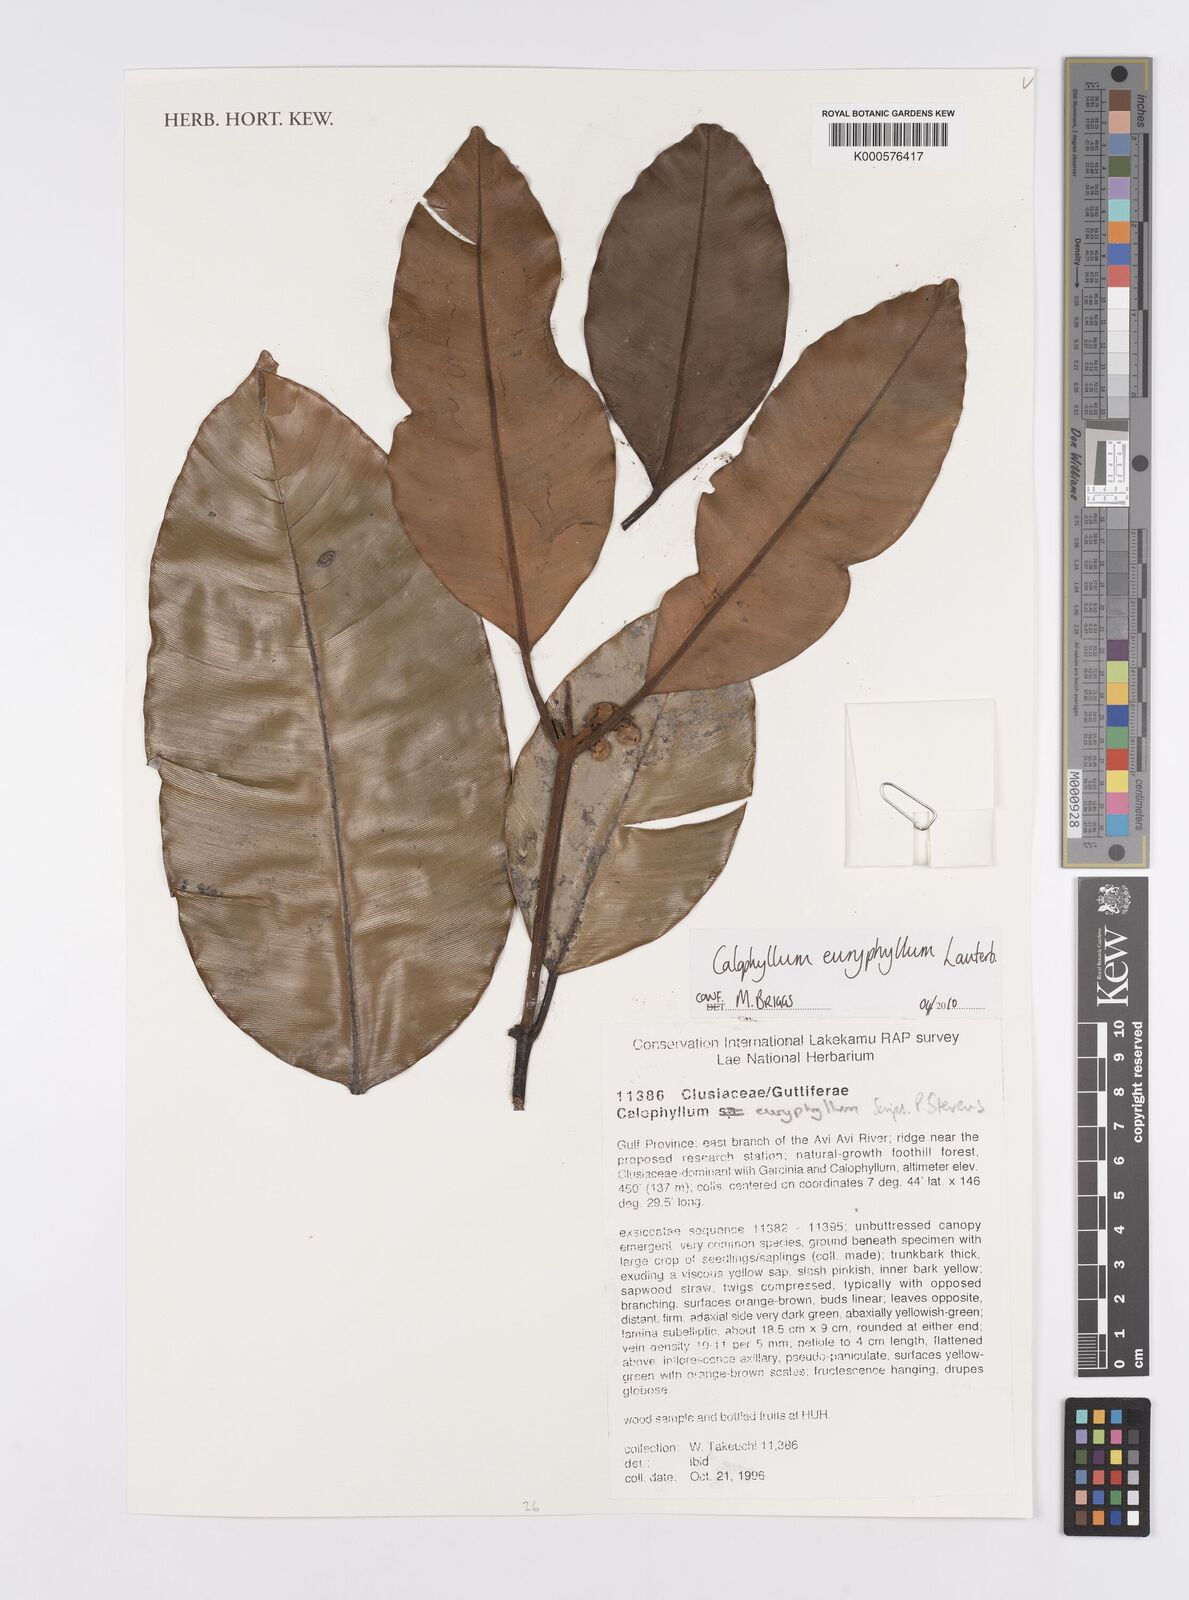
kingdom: Plantae
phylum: Tracheophyta
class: Magnoliopsida
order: Malpighiales
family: Calophyllaceae
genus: Calophyllum
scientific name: Calophyllum euryphyllum
